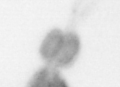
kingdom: Animalia
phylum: Arthropoda
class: Copepoda
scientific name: Copepoda
